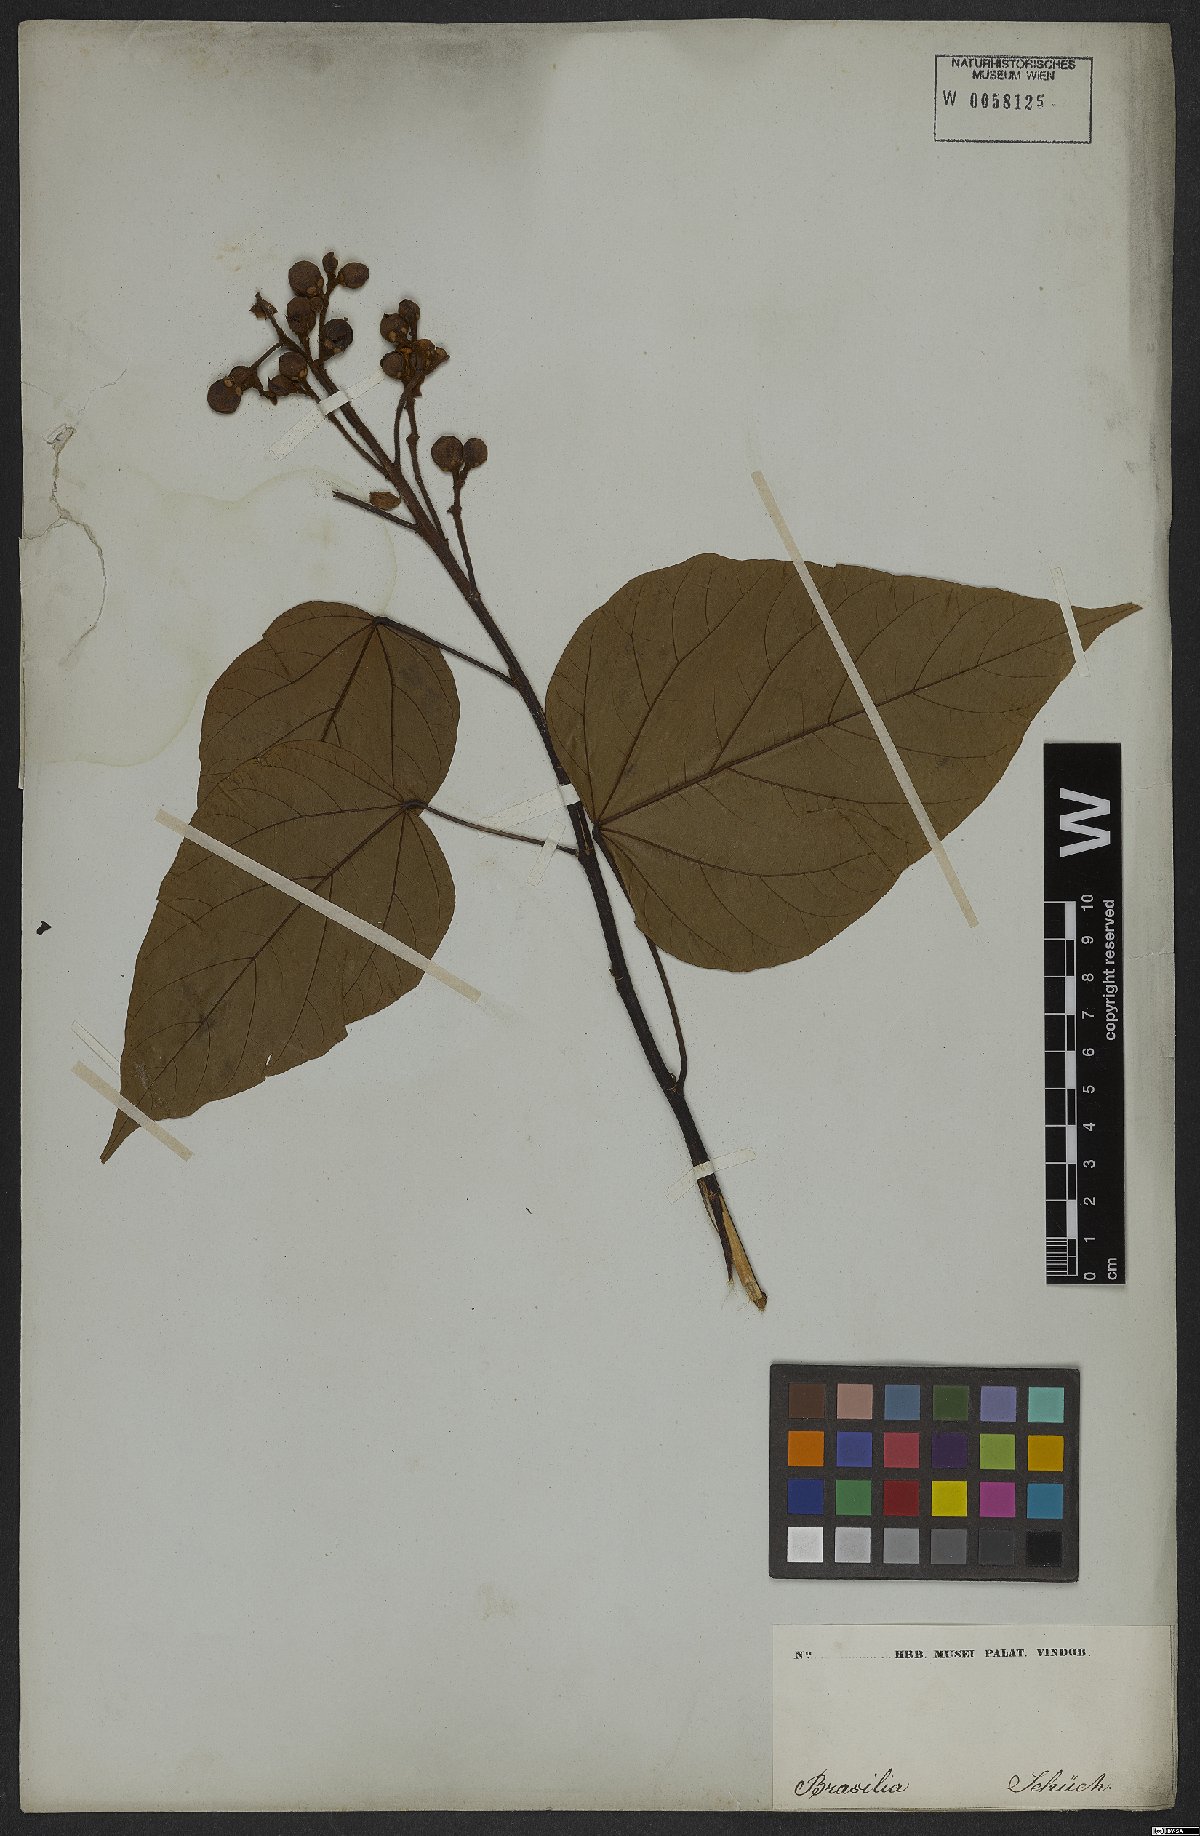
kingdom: Plantae
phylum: Tracheophyta
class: Magnoliopsida
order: Malvales
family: Bixaceae
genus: Bixa
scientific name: Bixa orellana
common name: Lipsticktree
